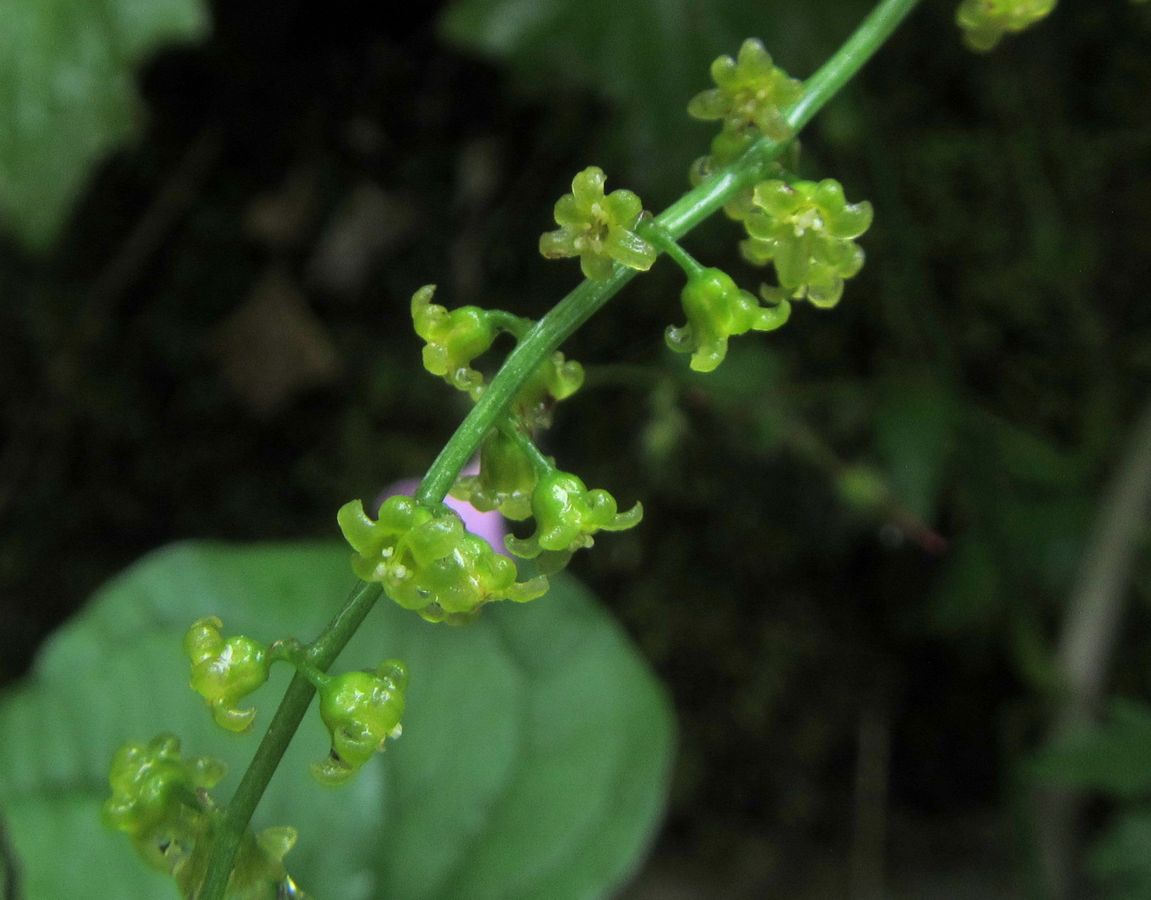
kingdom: Plantae
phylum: Tracheophyta
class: Liliopsida
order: Dioscoreales
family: Dioscoreaceae
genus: Dioscorea
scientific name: Dioscorea communis
